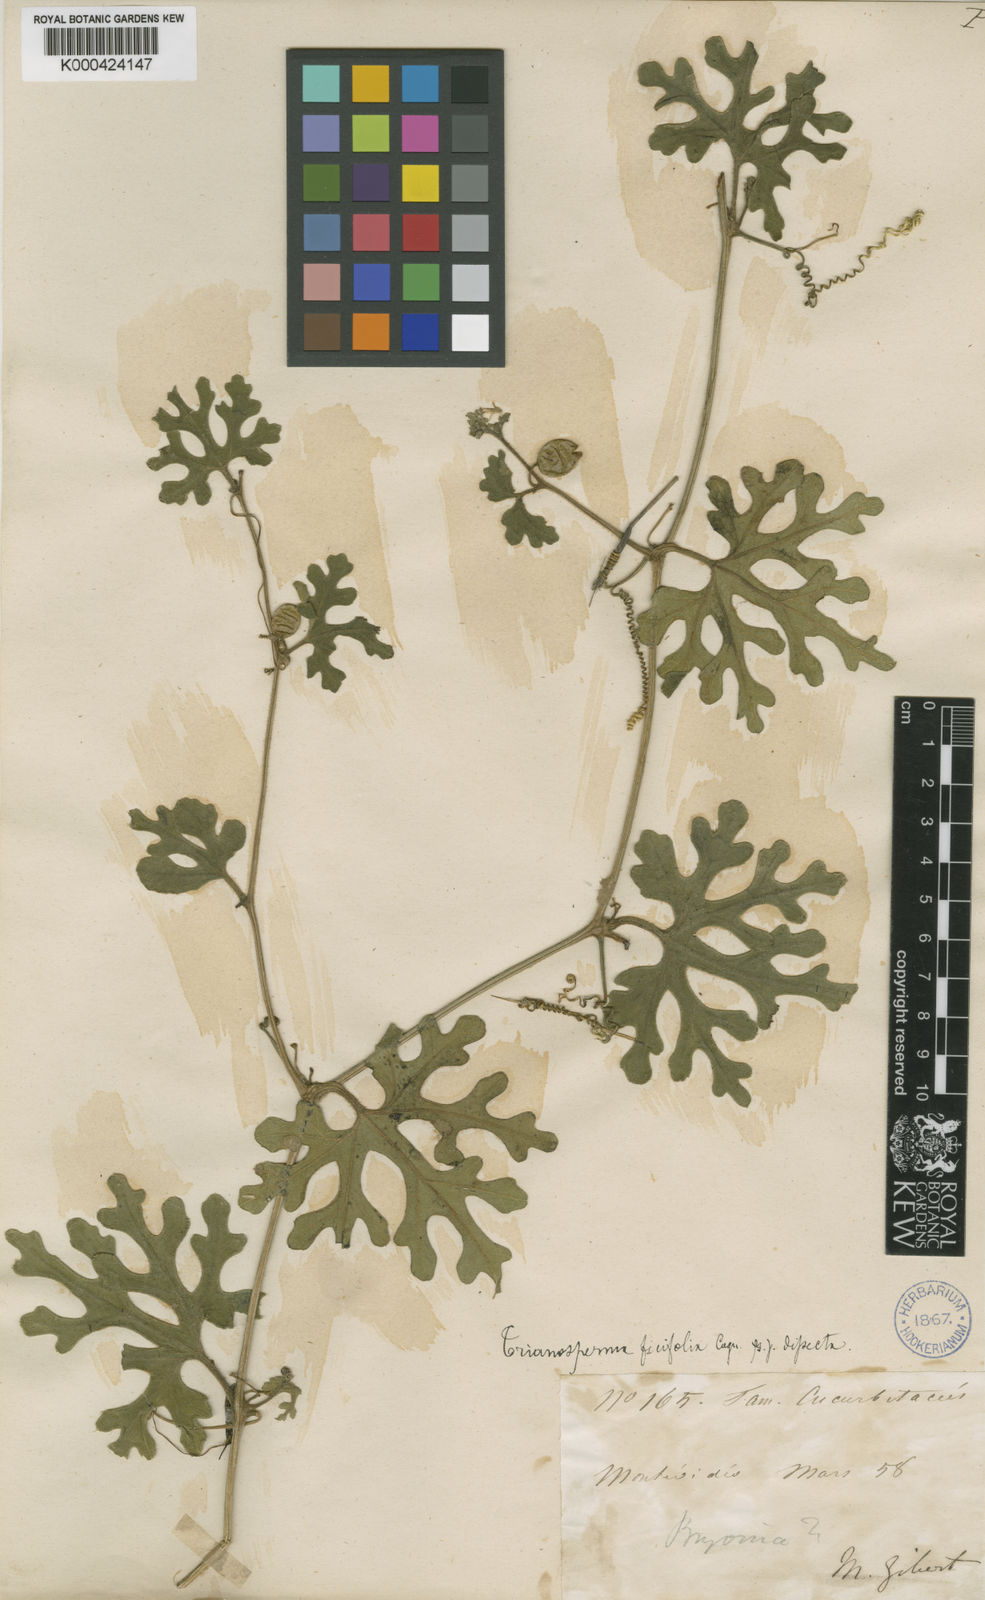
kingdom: Plantae
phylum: Tracheophyta
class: Magnoliopsida
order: Cucurbitales
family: Cucurbitaceae
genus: Cayaponia
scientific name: Cayaponia bonariensis
